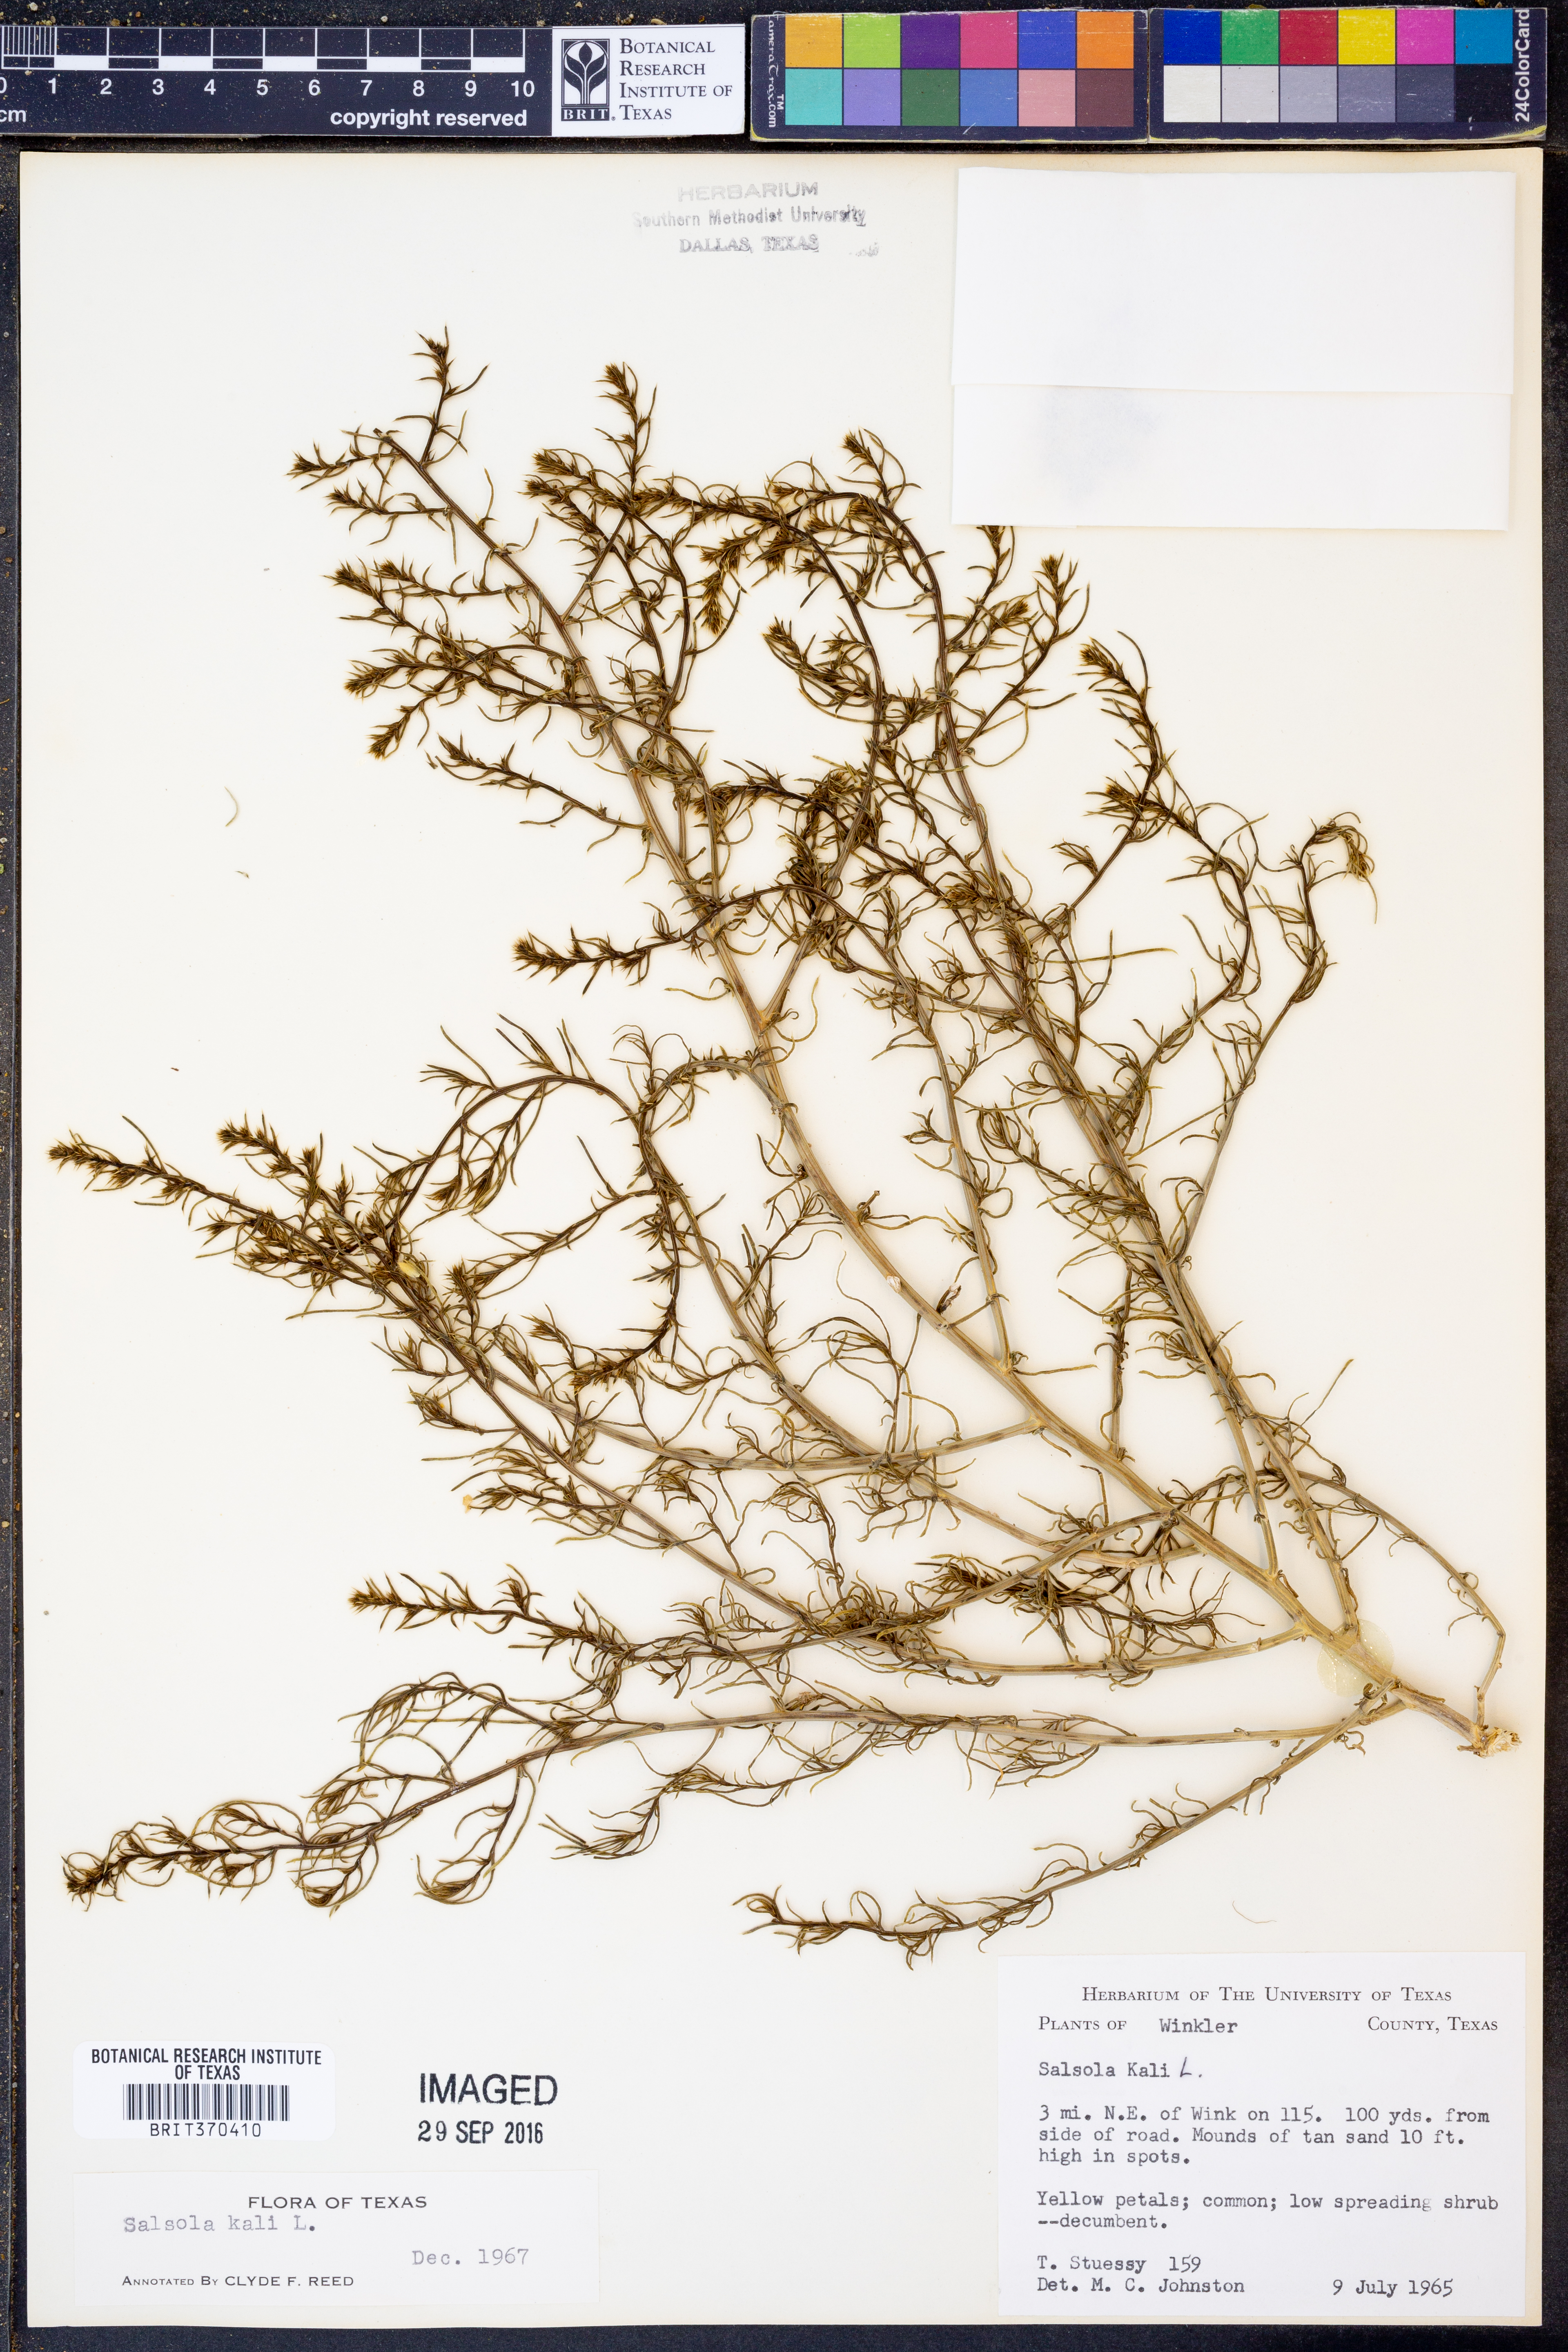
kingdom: Plantae
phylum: Tracheophyta
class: Magnoliopsida
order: Caryophyllales
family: Amaranthaceae
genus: Salsola
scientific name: Salsola tragus
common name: Prickly russian thistle
